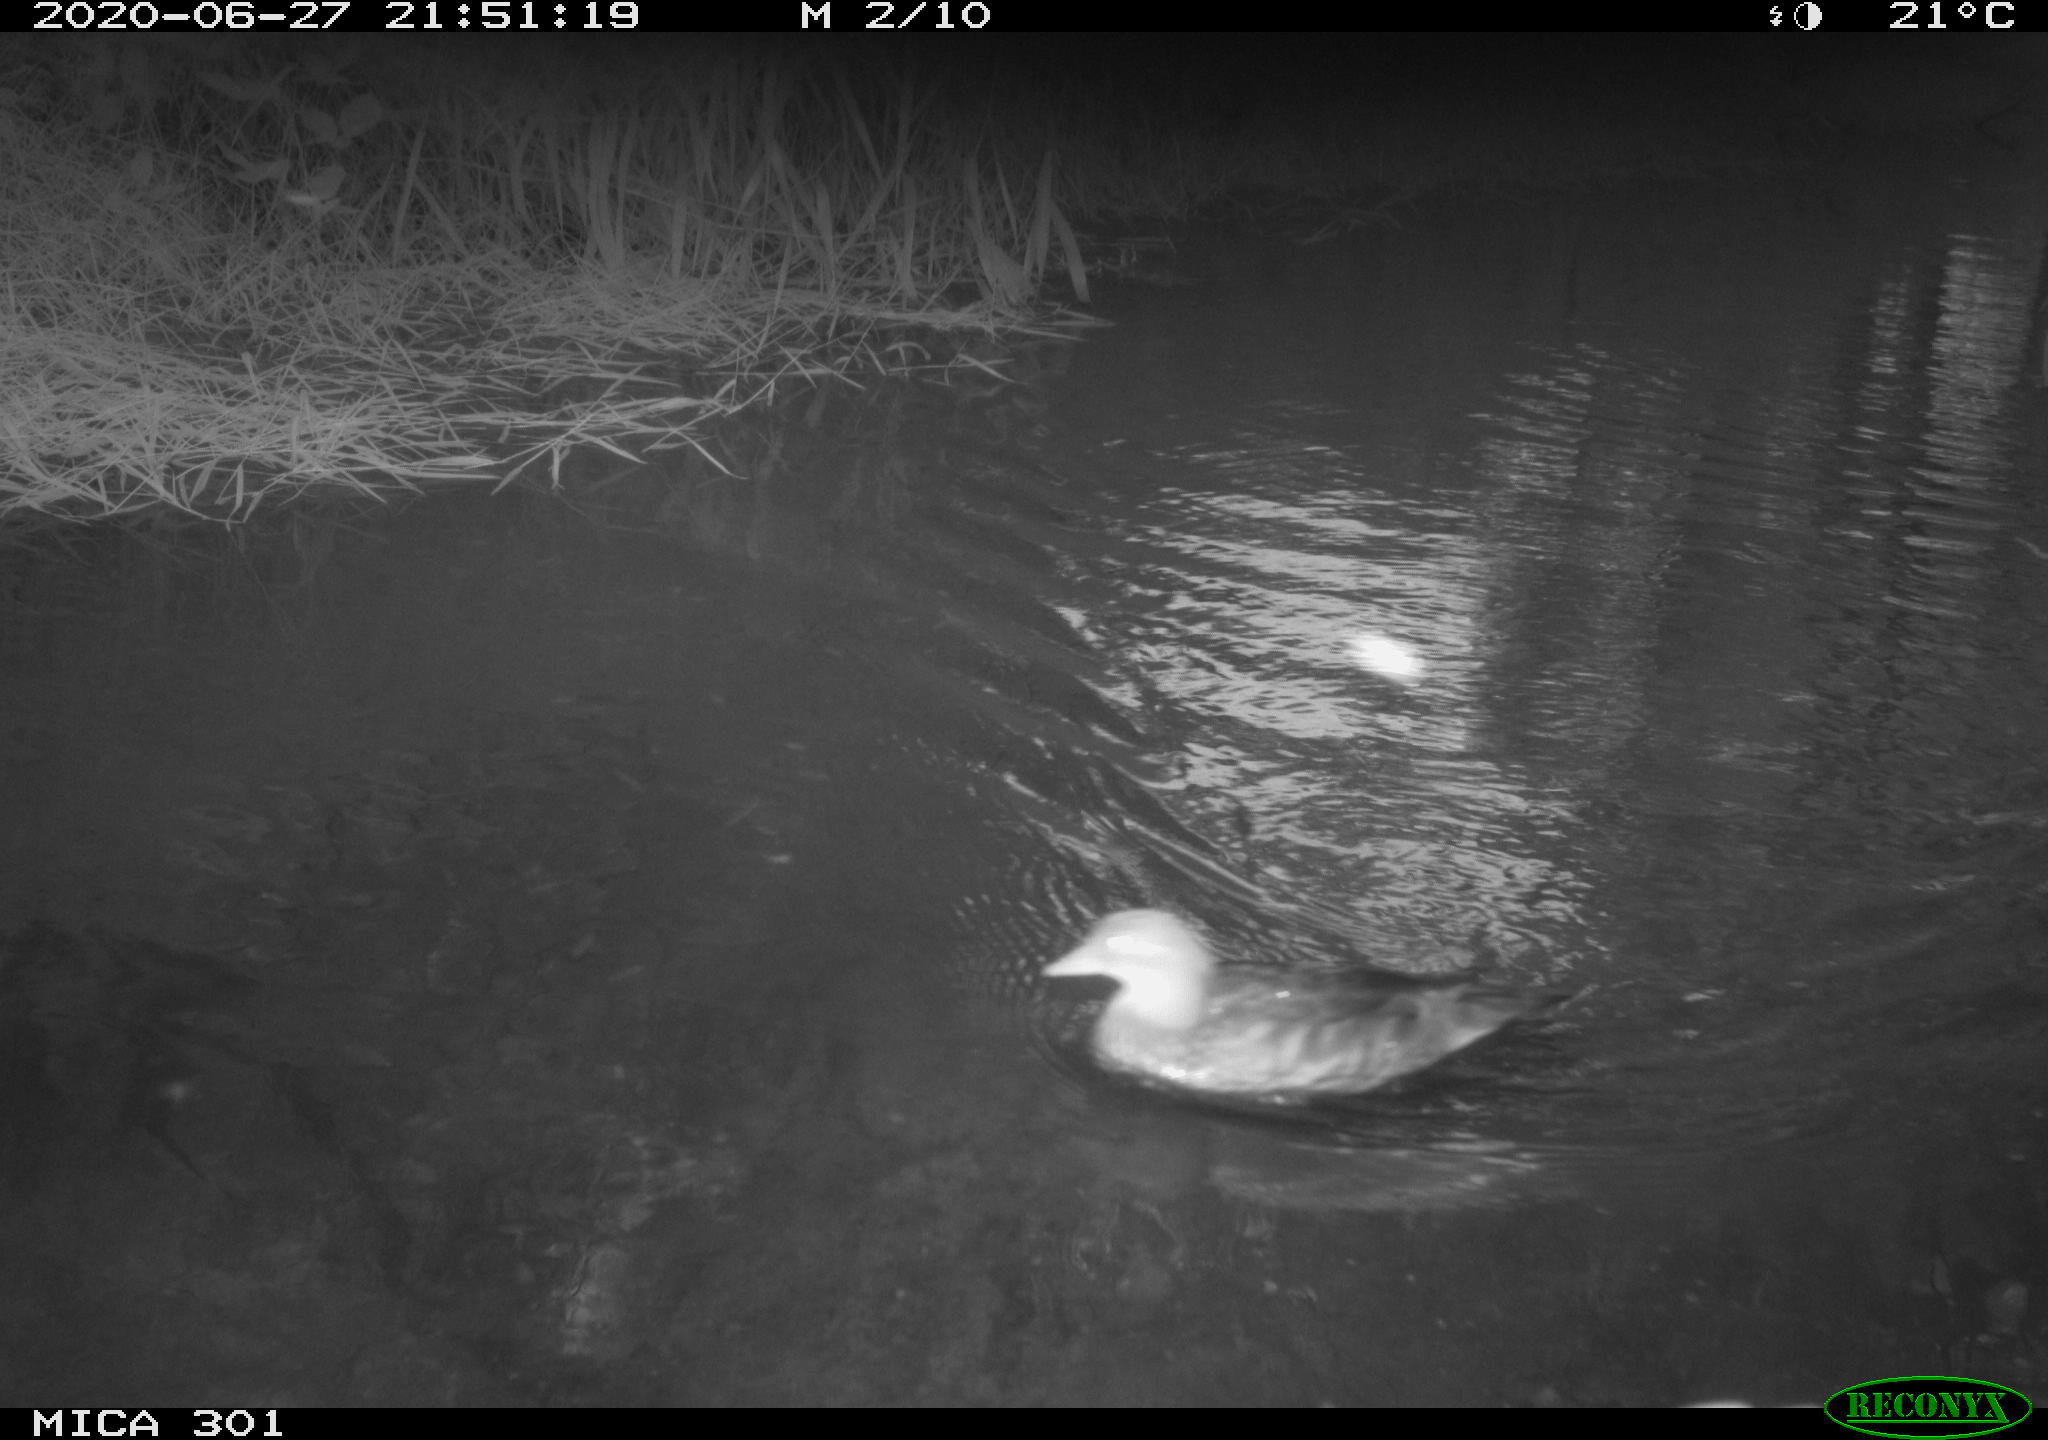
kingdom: Animalia
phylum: Chordata
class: Aves
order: Anseriformes
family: Anatidae
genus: Aix
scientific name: Aix galericulata
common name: Mandarin duck
